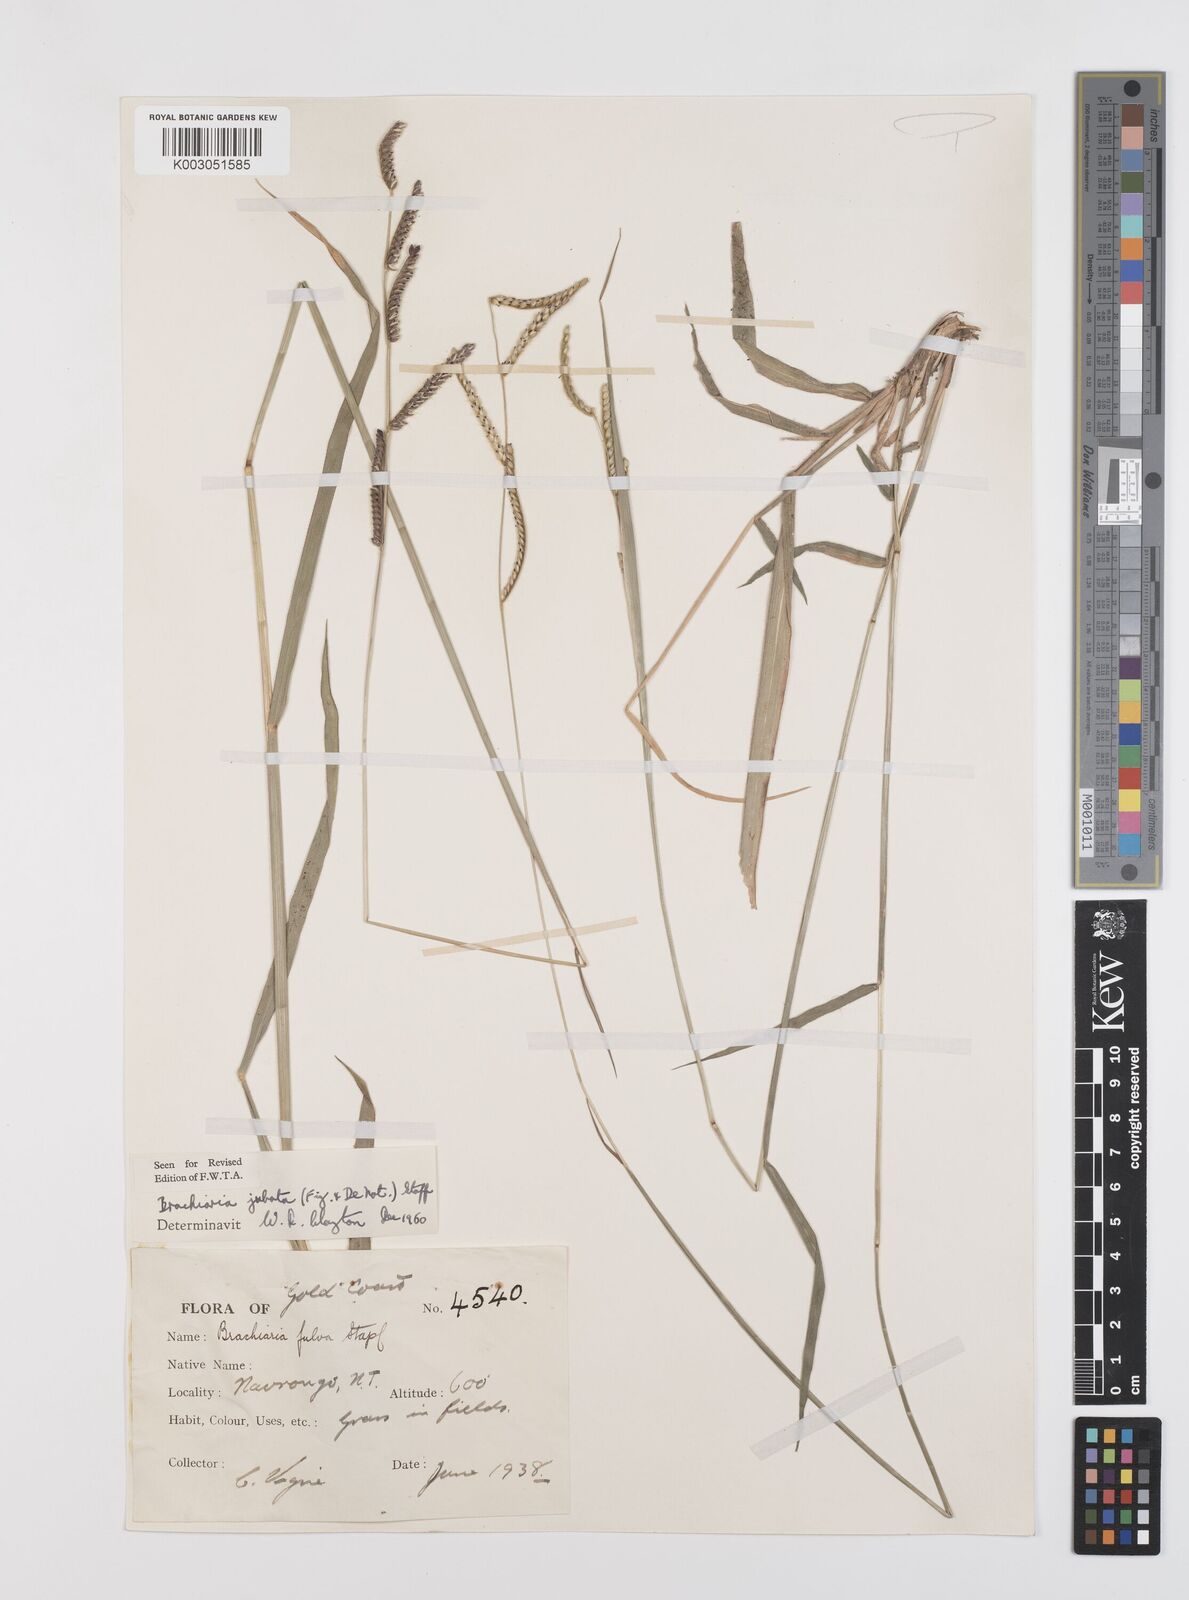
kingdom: Plantae
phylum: Tracheophyta
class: Liliopsida
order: Poales
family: Poaceae
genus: Urochloa
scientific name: Urochloa jubata
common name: Buffalograss
